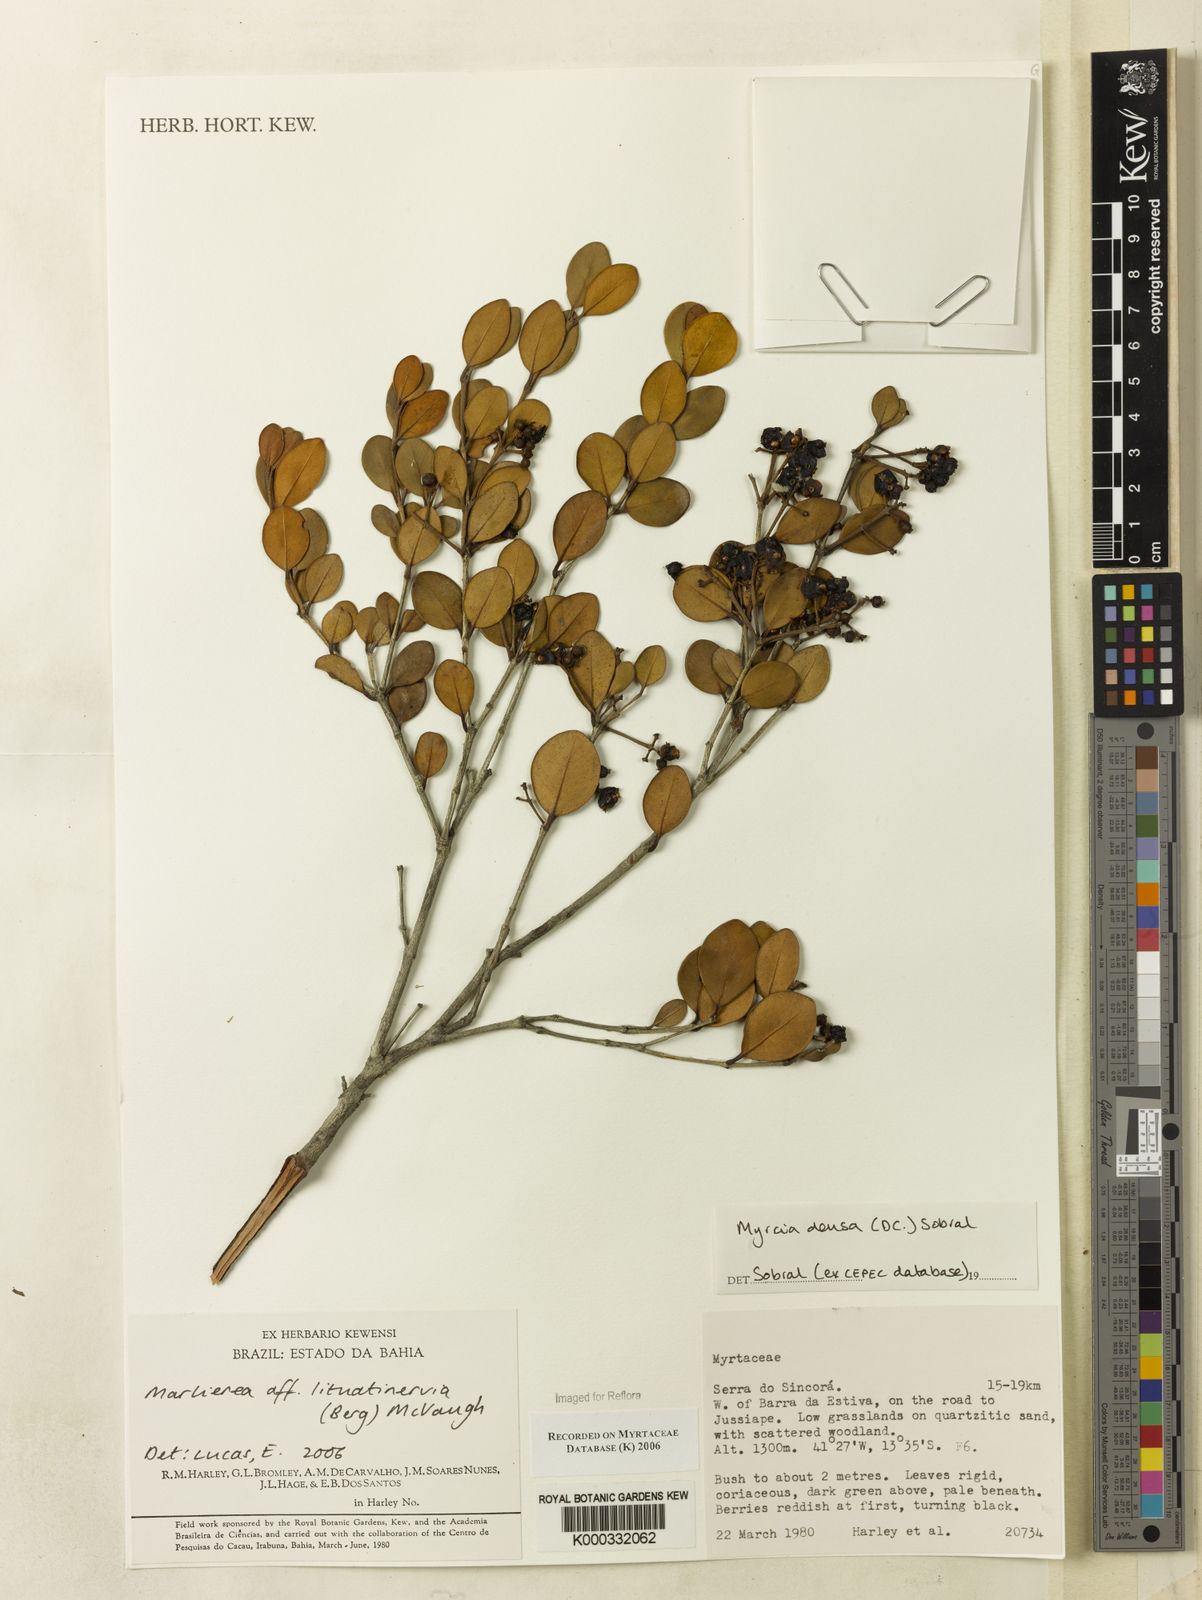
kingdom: Plantae
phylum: Tracheophyta
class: Magnoliopsida
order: Myrtales
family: Myrtaceae
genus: Myrcia
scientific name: Myrcia lituatinervia
